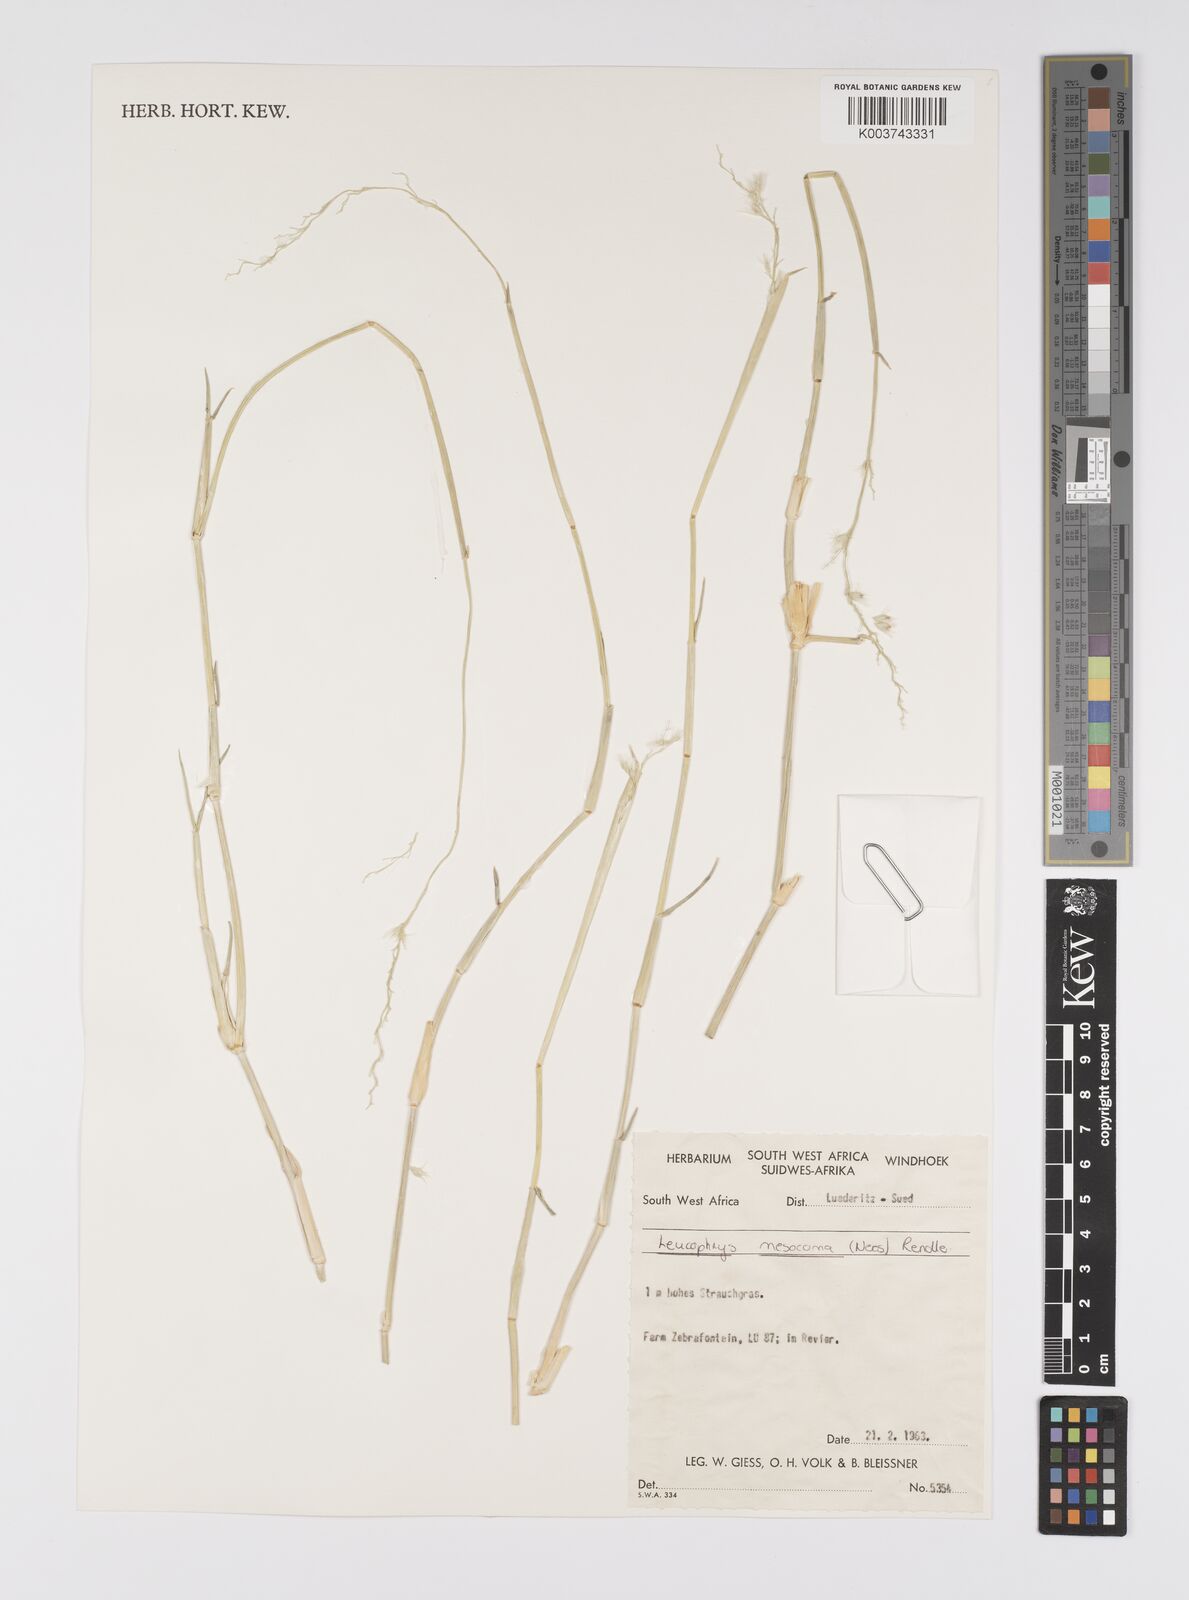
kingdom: Plantae
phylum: Tracheophyta
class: Liliopsida
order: Poales
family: Poaceae
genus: Urochloa
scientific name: Urochloa Brachiaria mesocoma
